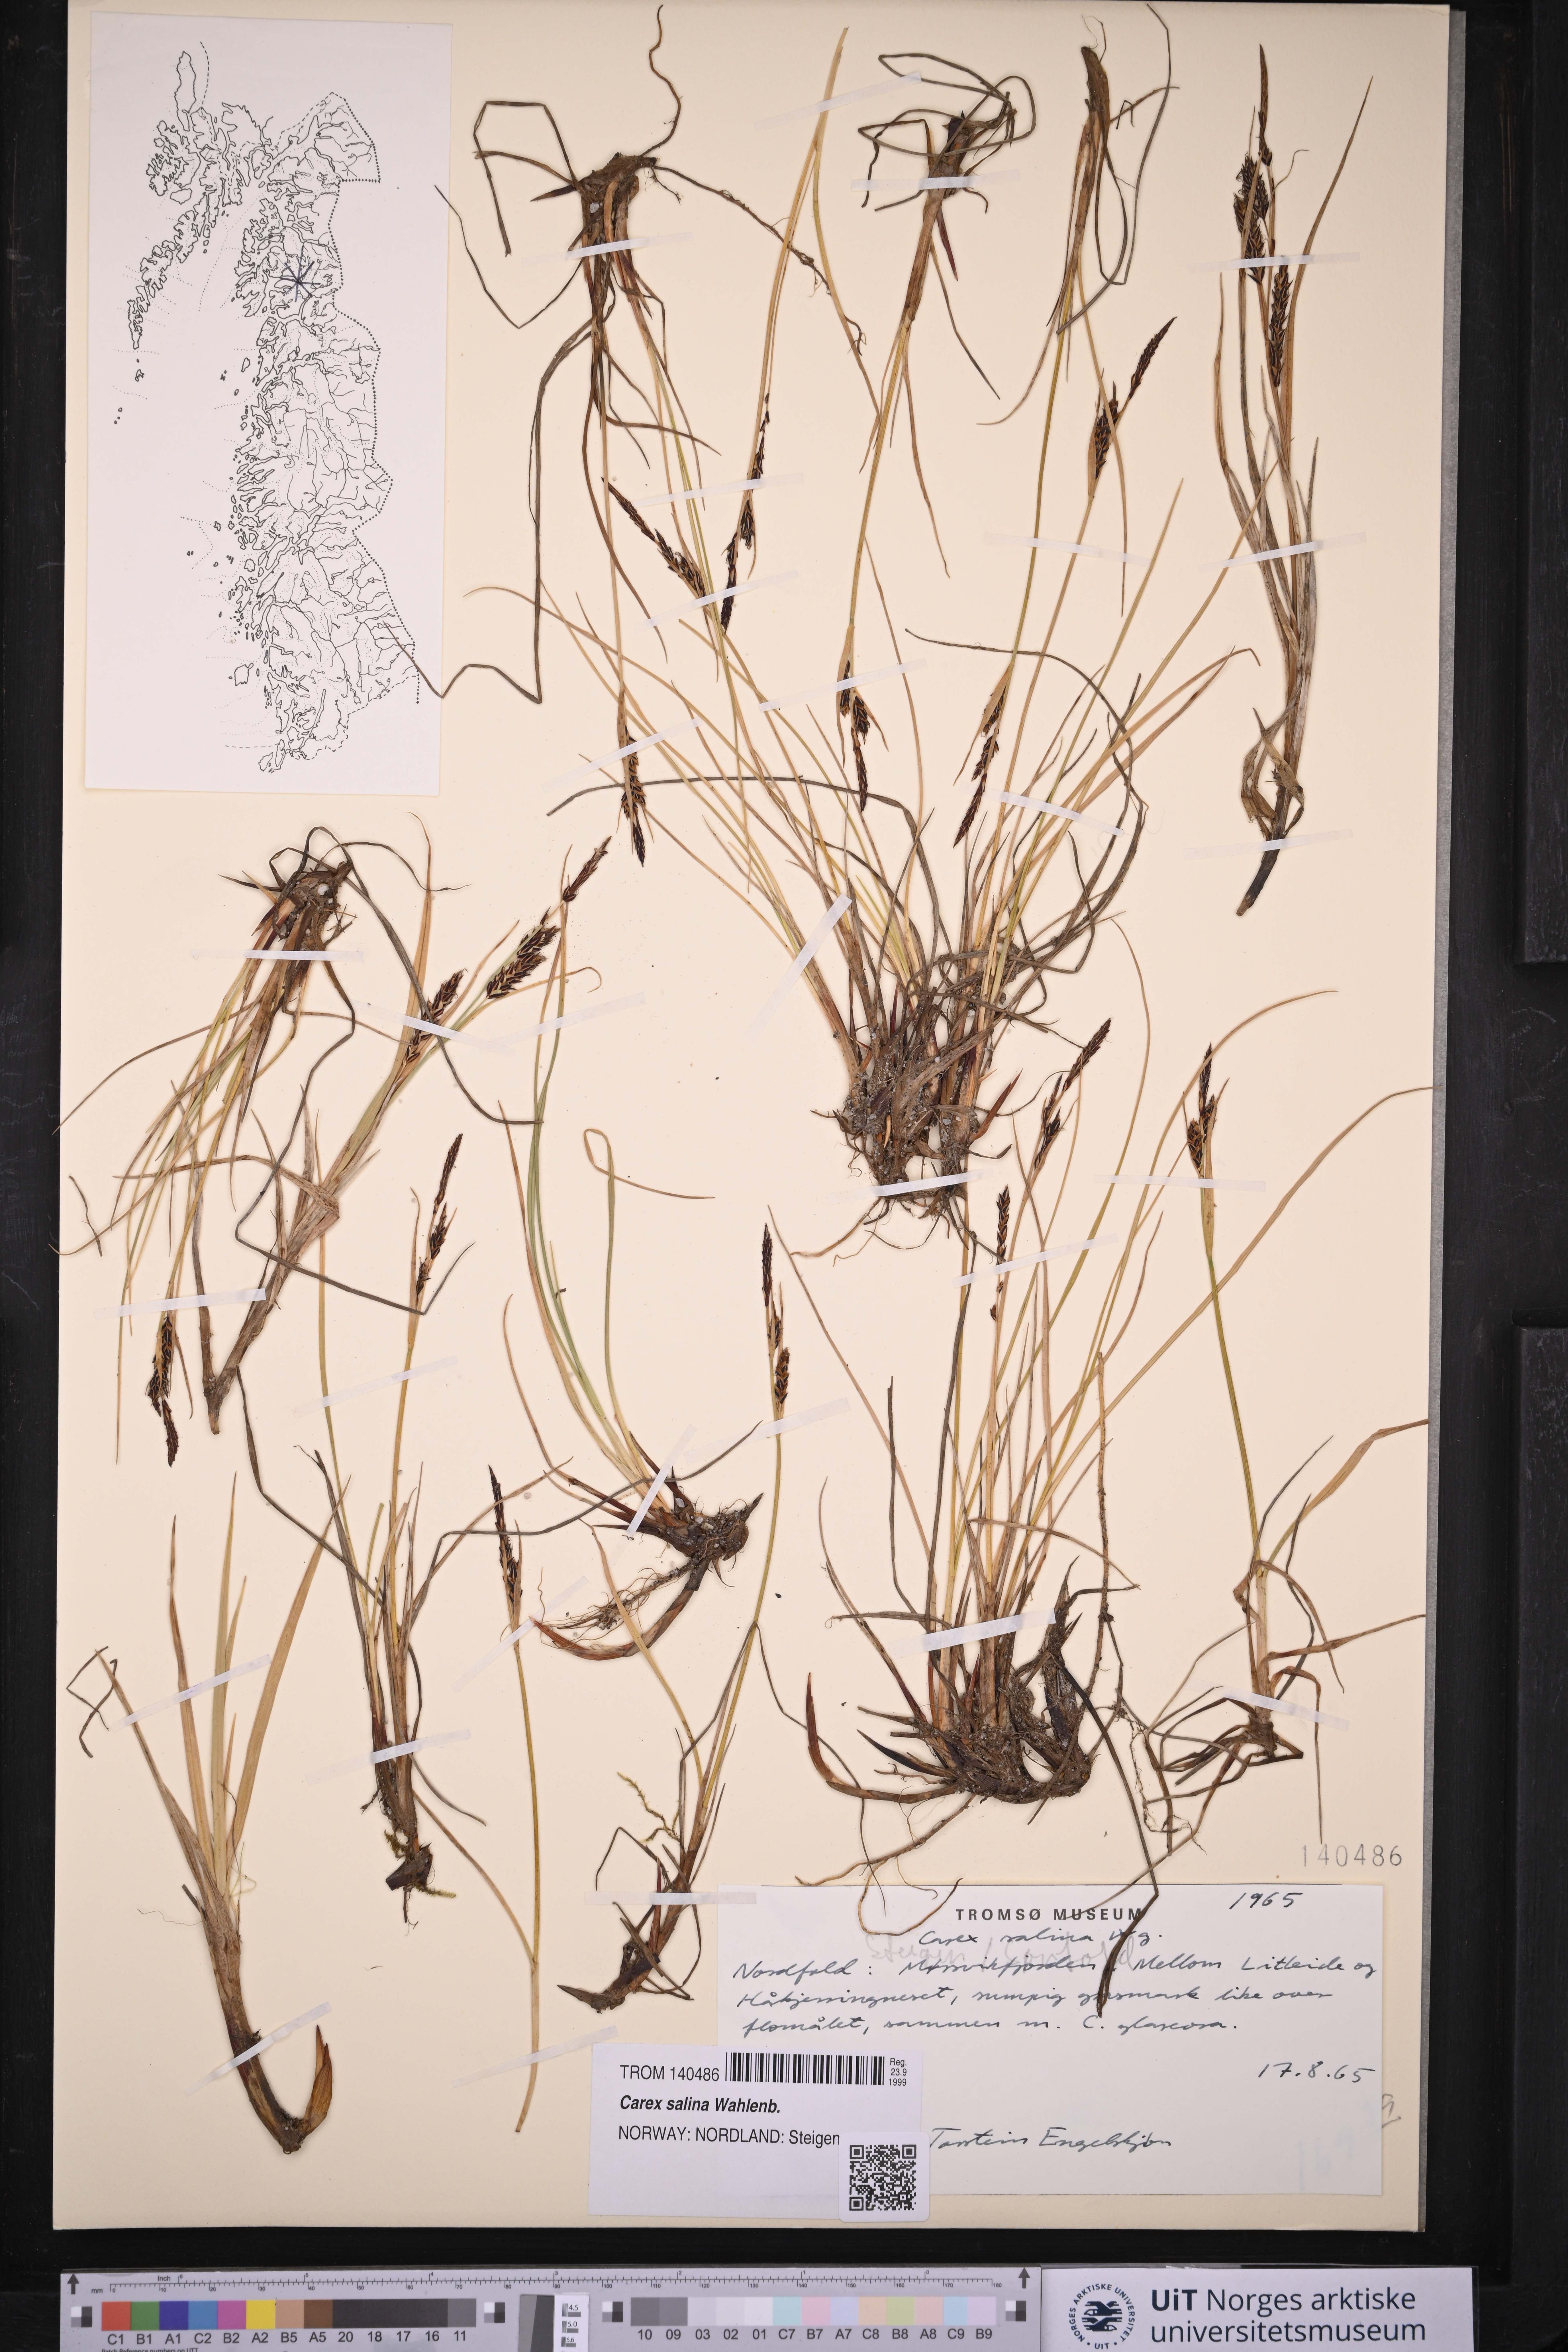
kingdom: Plantae
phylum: Tracheophyta
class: Liliopsida
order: Poales
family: Cyperaceae
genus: Carex
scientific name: Carex salina
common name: Saltmarsh sedge
